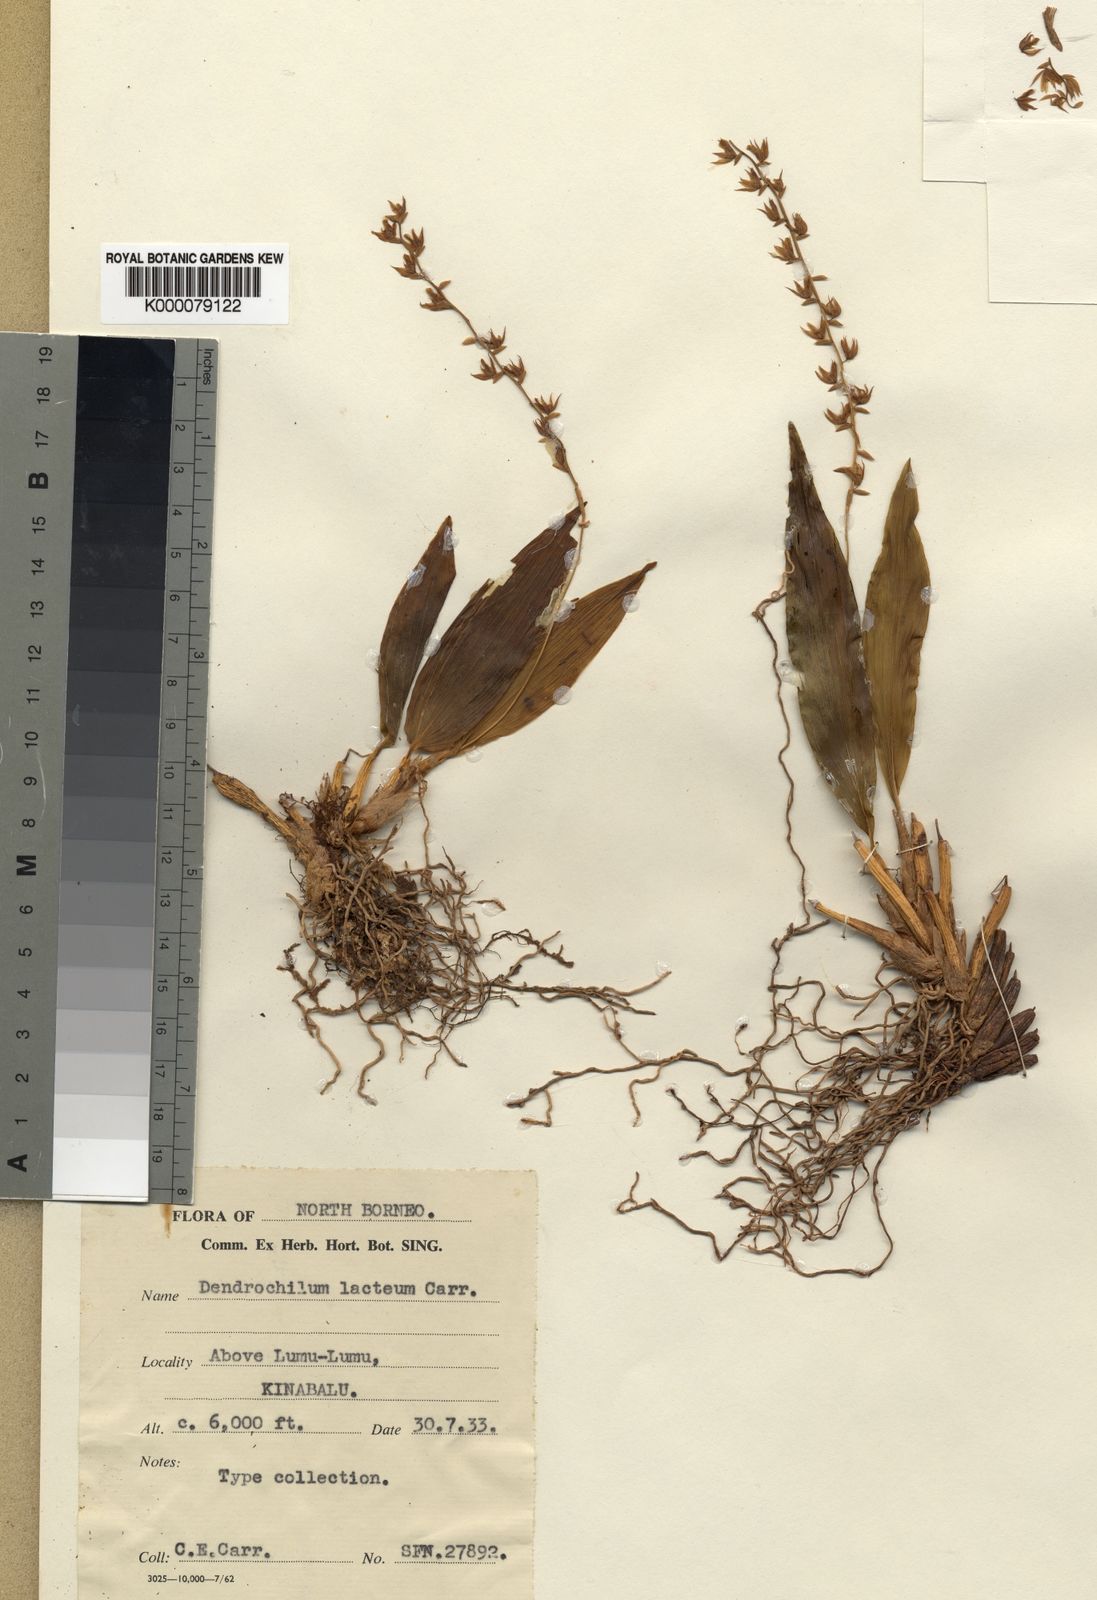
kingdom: Plantae
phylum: Tracheophyta
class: Liliopsida
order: Asparagales
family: Orchidaceae
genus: Coelogyne
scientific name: Coelogyne lacteola
